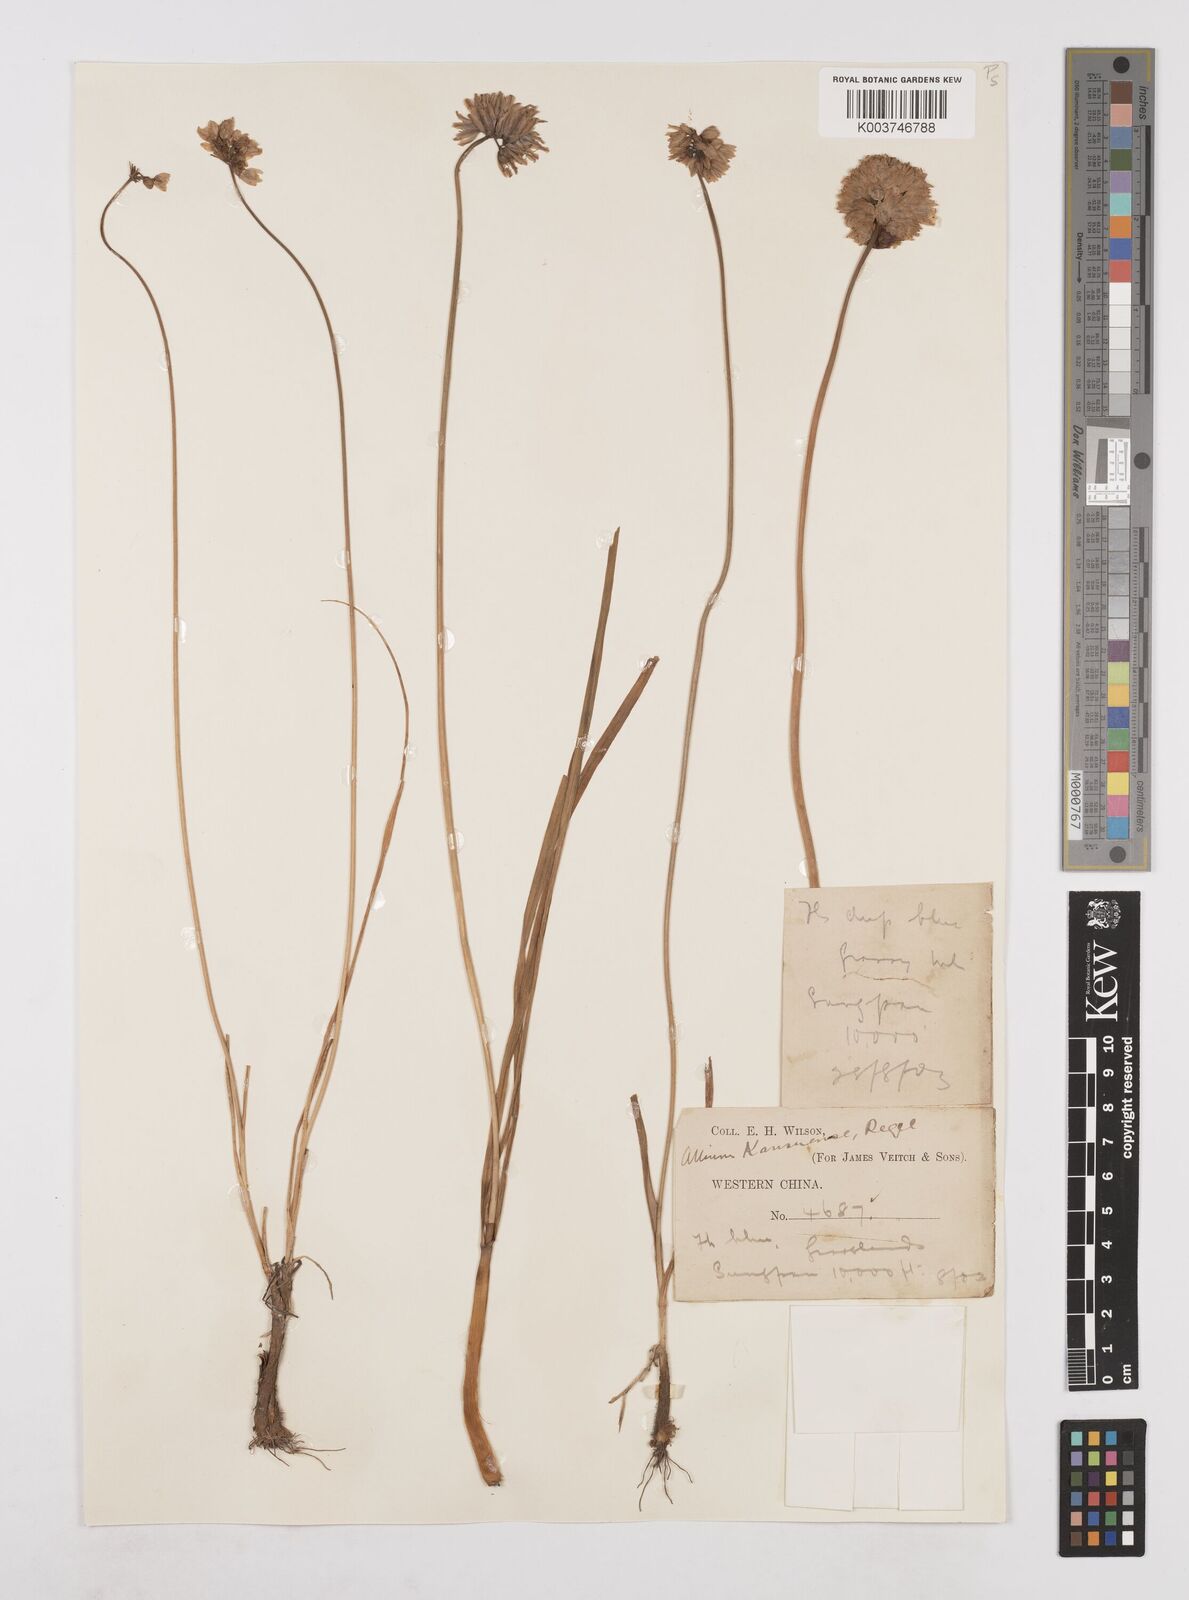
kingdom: Plantae
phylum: Tracheophyta
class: Liliopsida
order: Asparagales
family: Amaryllidaceae
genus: Allium
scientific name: Allium sikkimense
